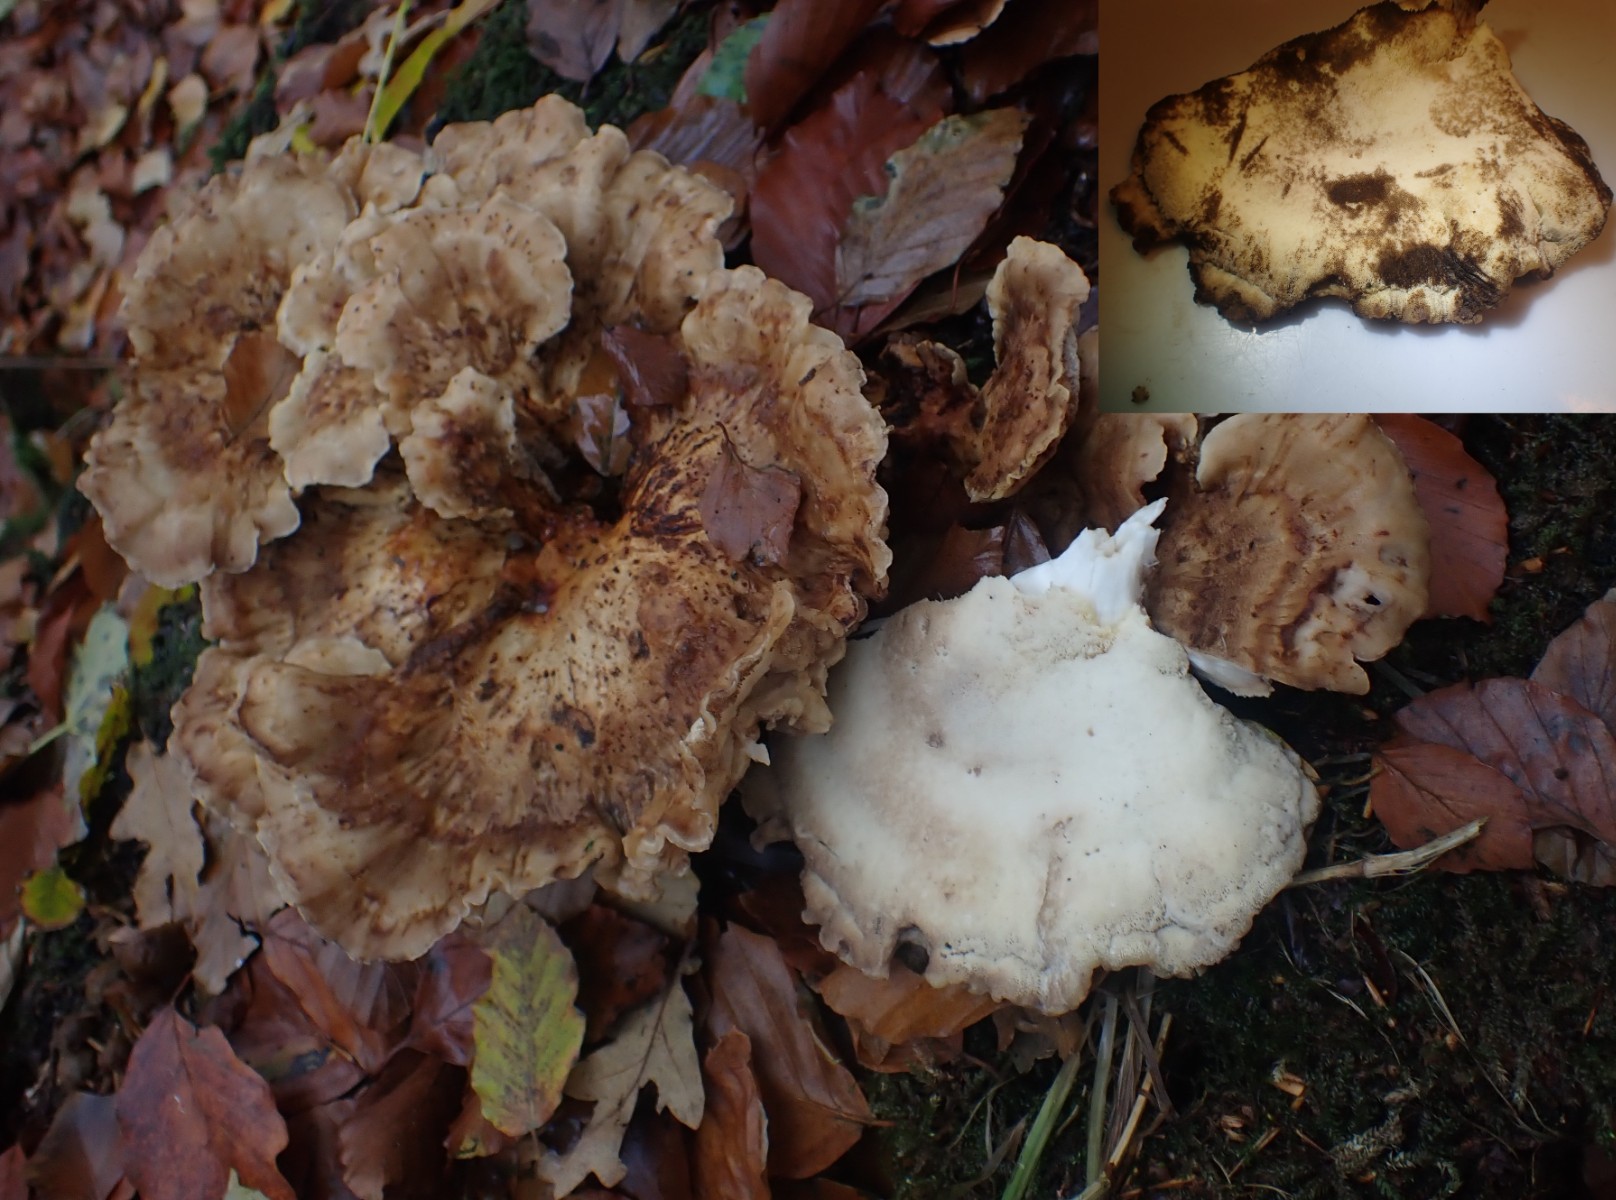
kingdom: Fungi
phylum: Basidiomycota
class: Agaricomycetes
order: Polyporales
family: Meripilaceae
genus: Meripilus
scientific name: Meripilus giganteus
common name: kæmpeporesvamp
